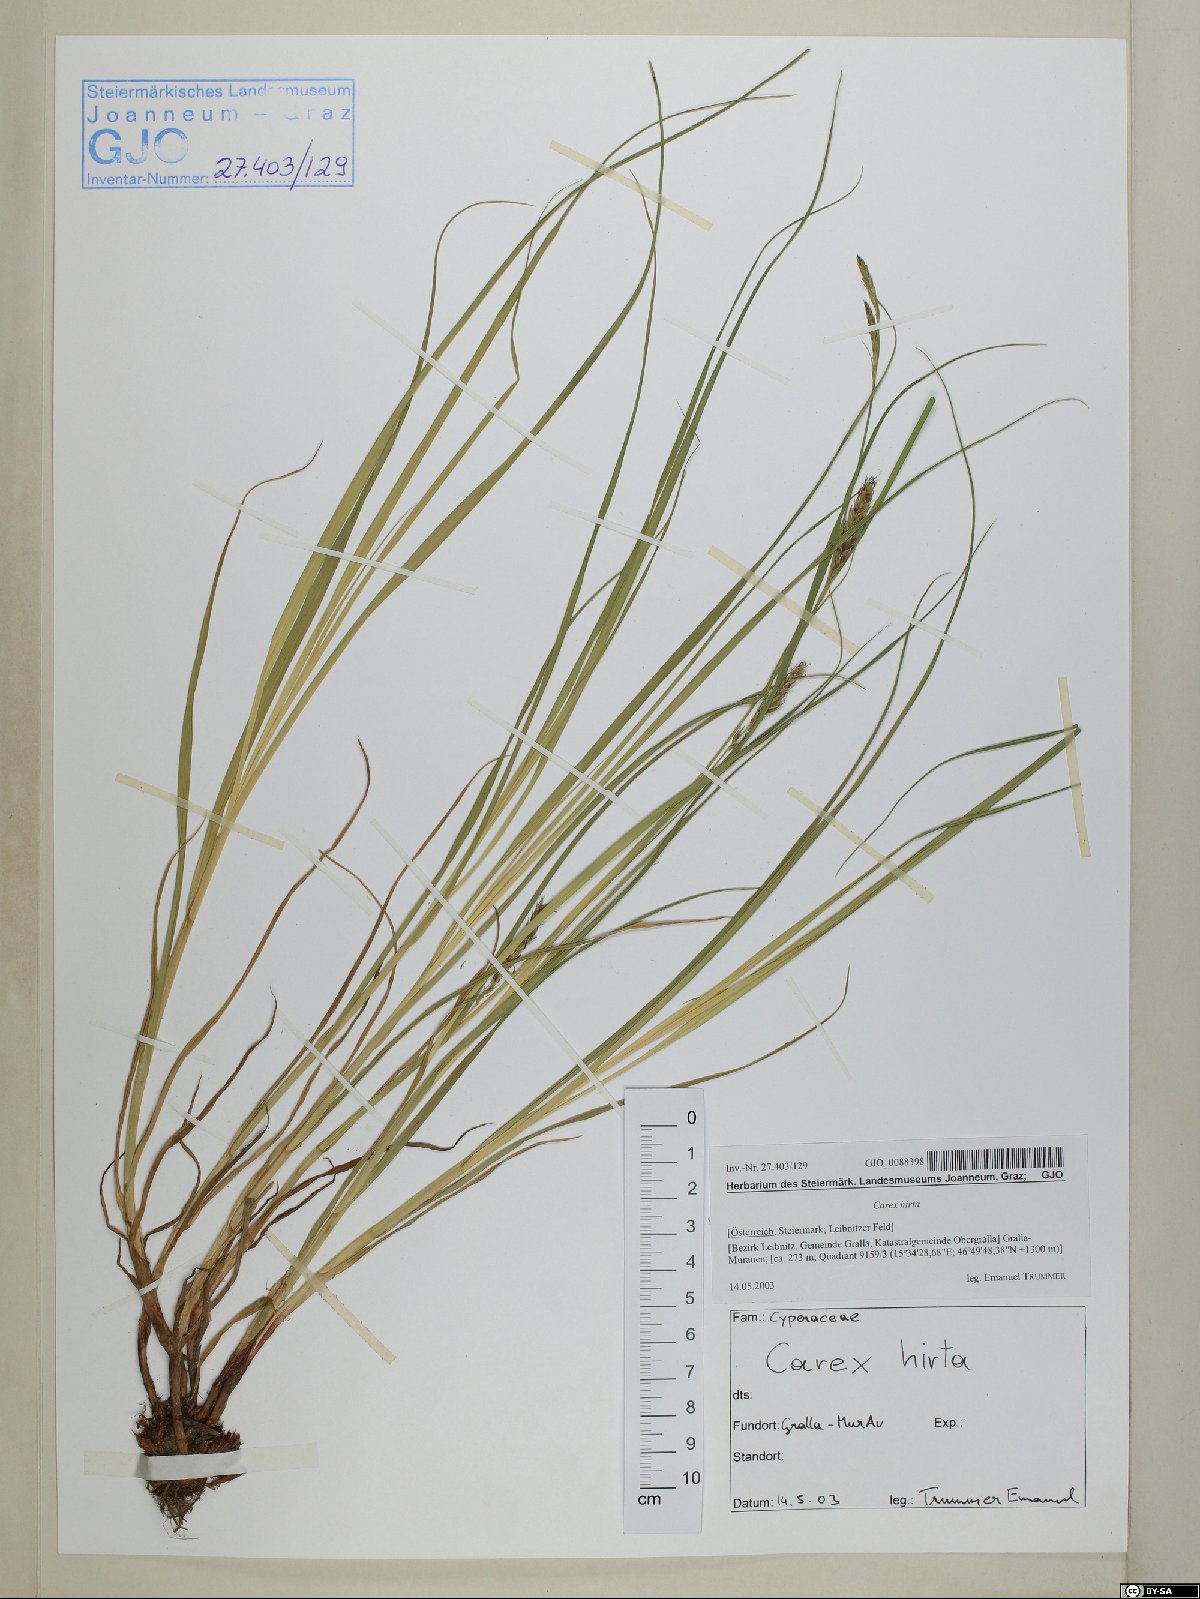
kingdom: Plantae
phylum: Tracheophyta
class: Liliopsida
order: Poales
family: Cyperaceae
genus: Carex
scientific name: Carex hirta
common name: Hairy sedge
